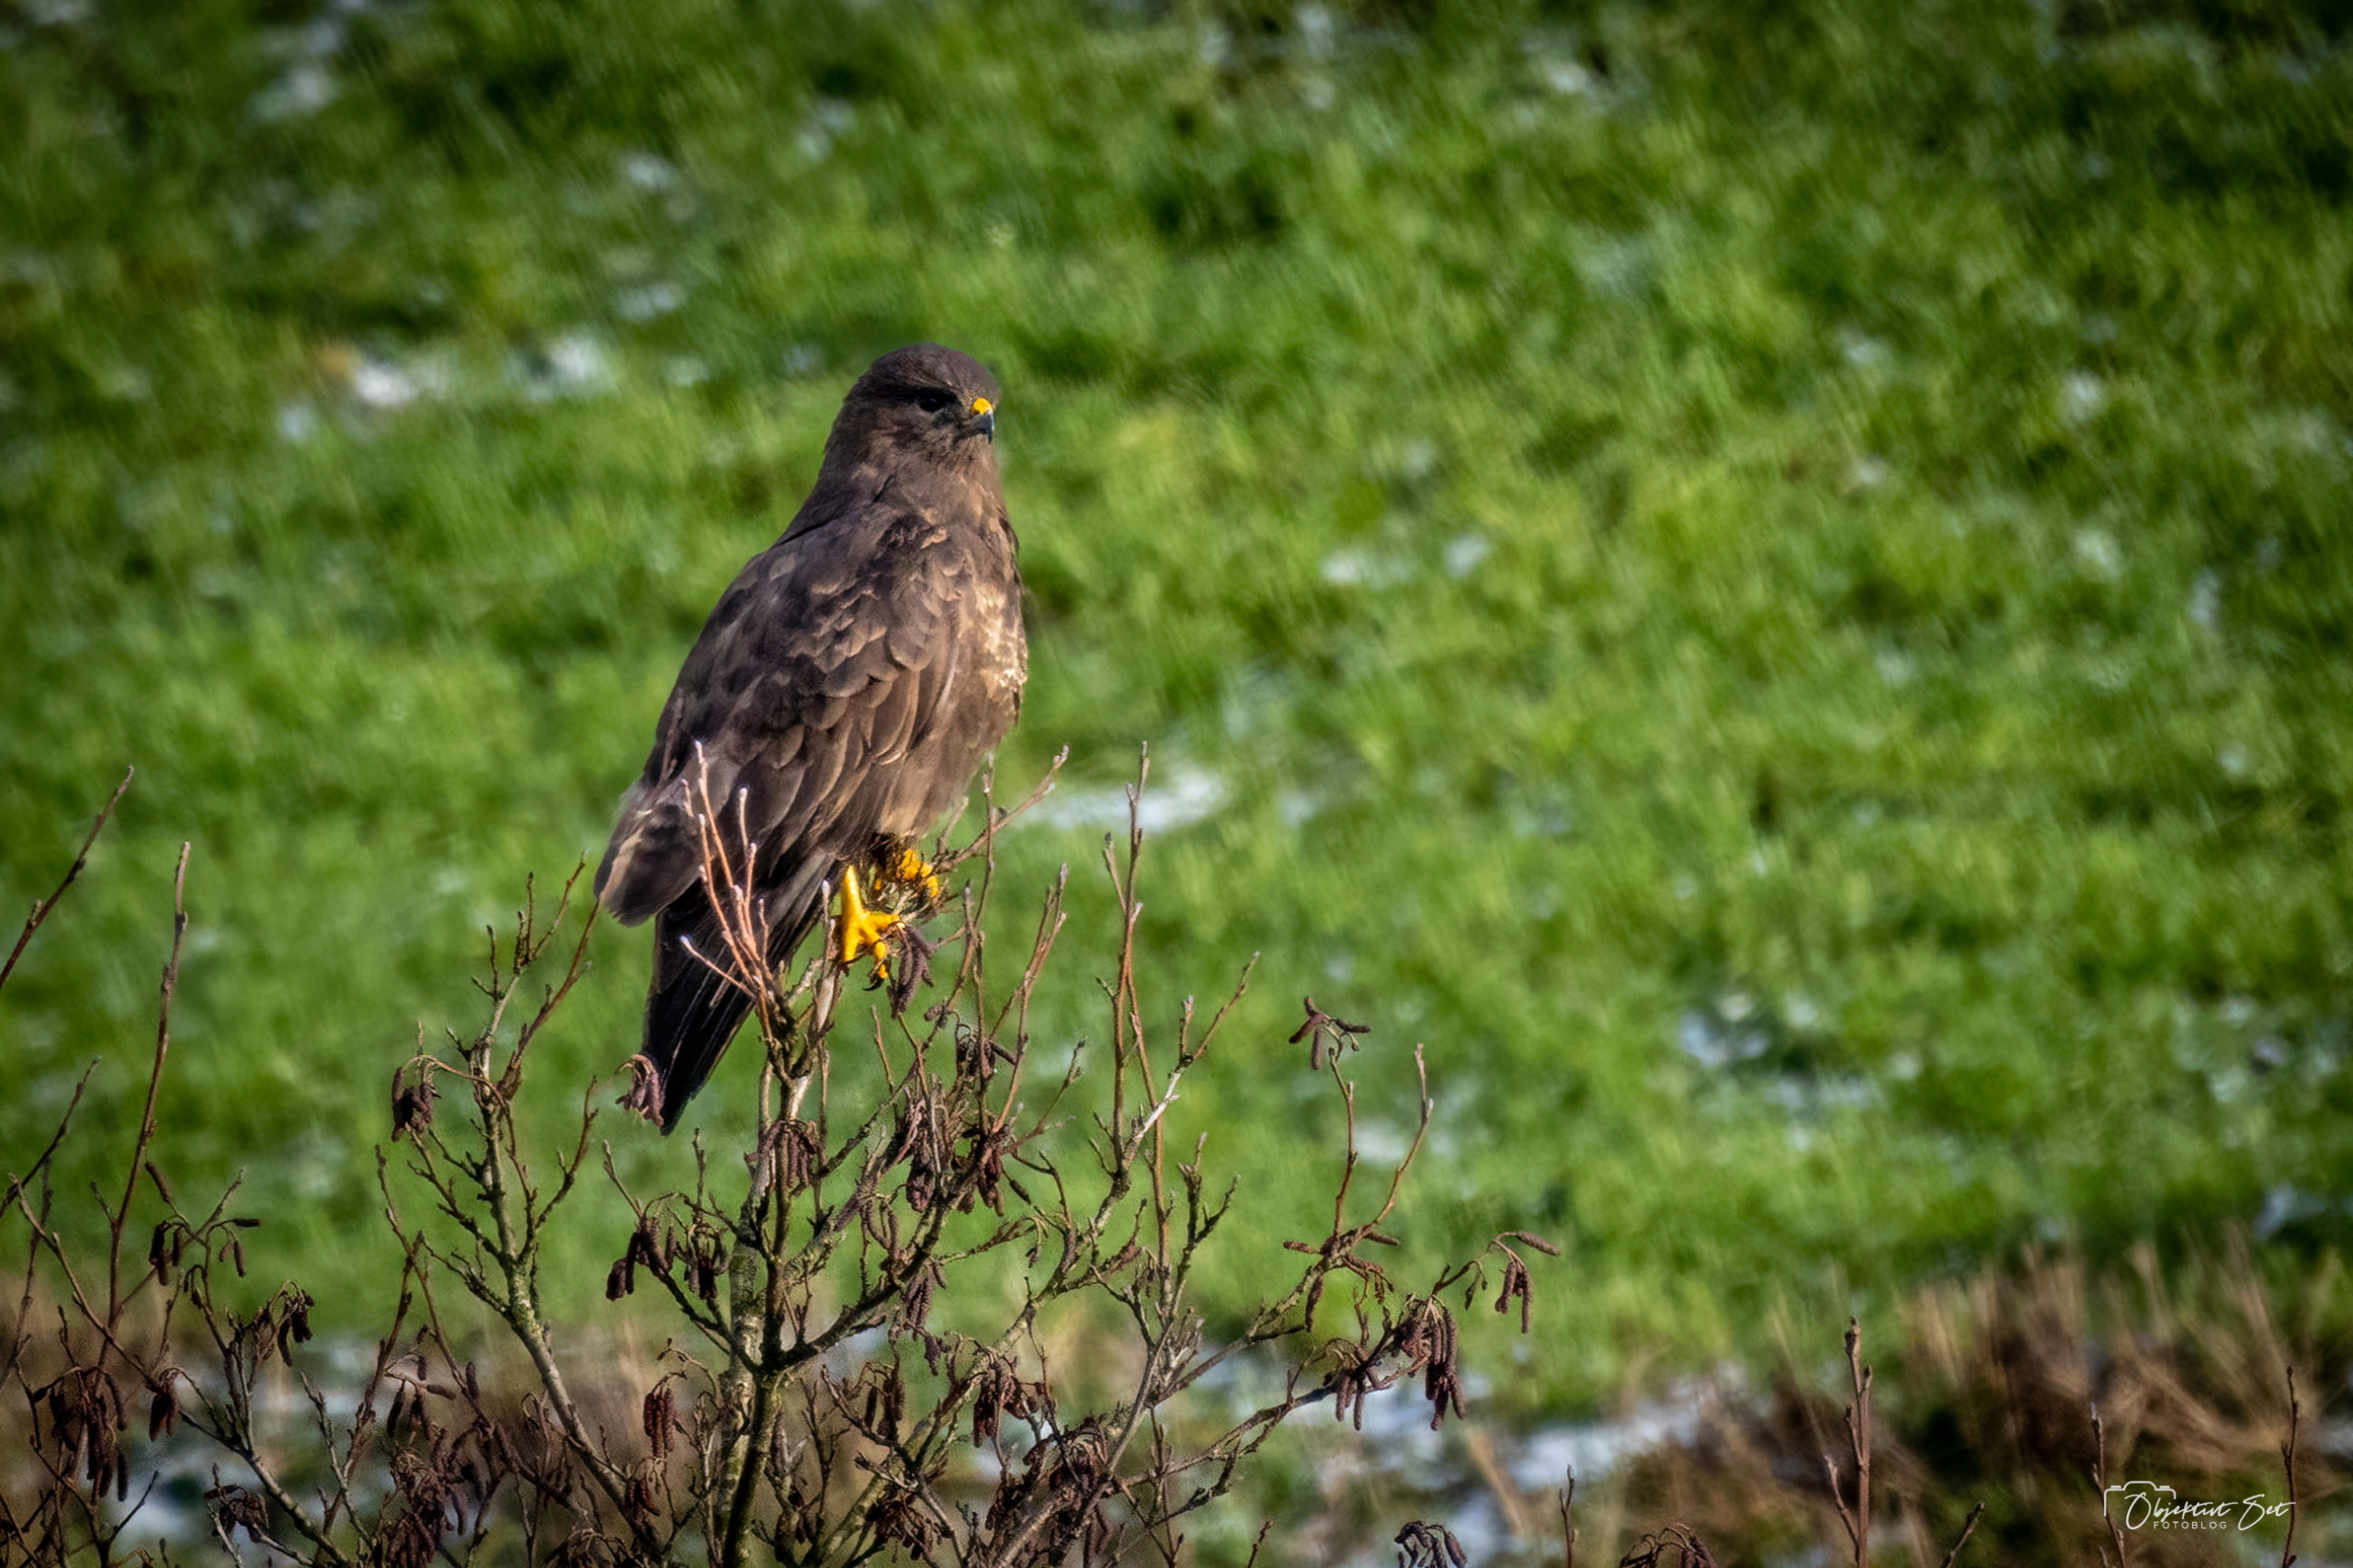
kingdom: Animalia
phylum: Chordata
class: Aves
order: Accipitriformes
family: Accipitridae
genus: Buteo
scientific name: Buteo buteo
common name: Musvåge
